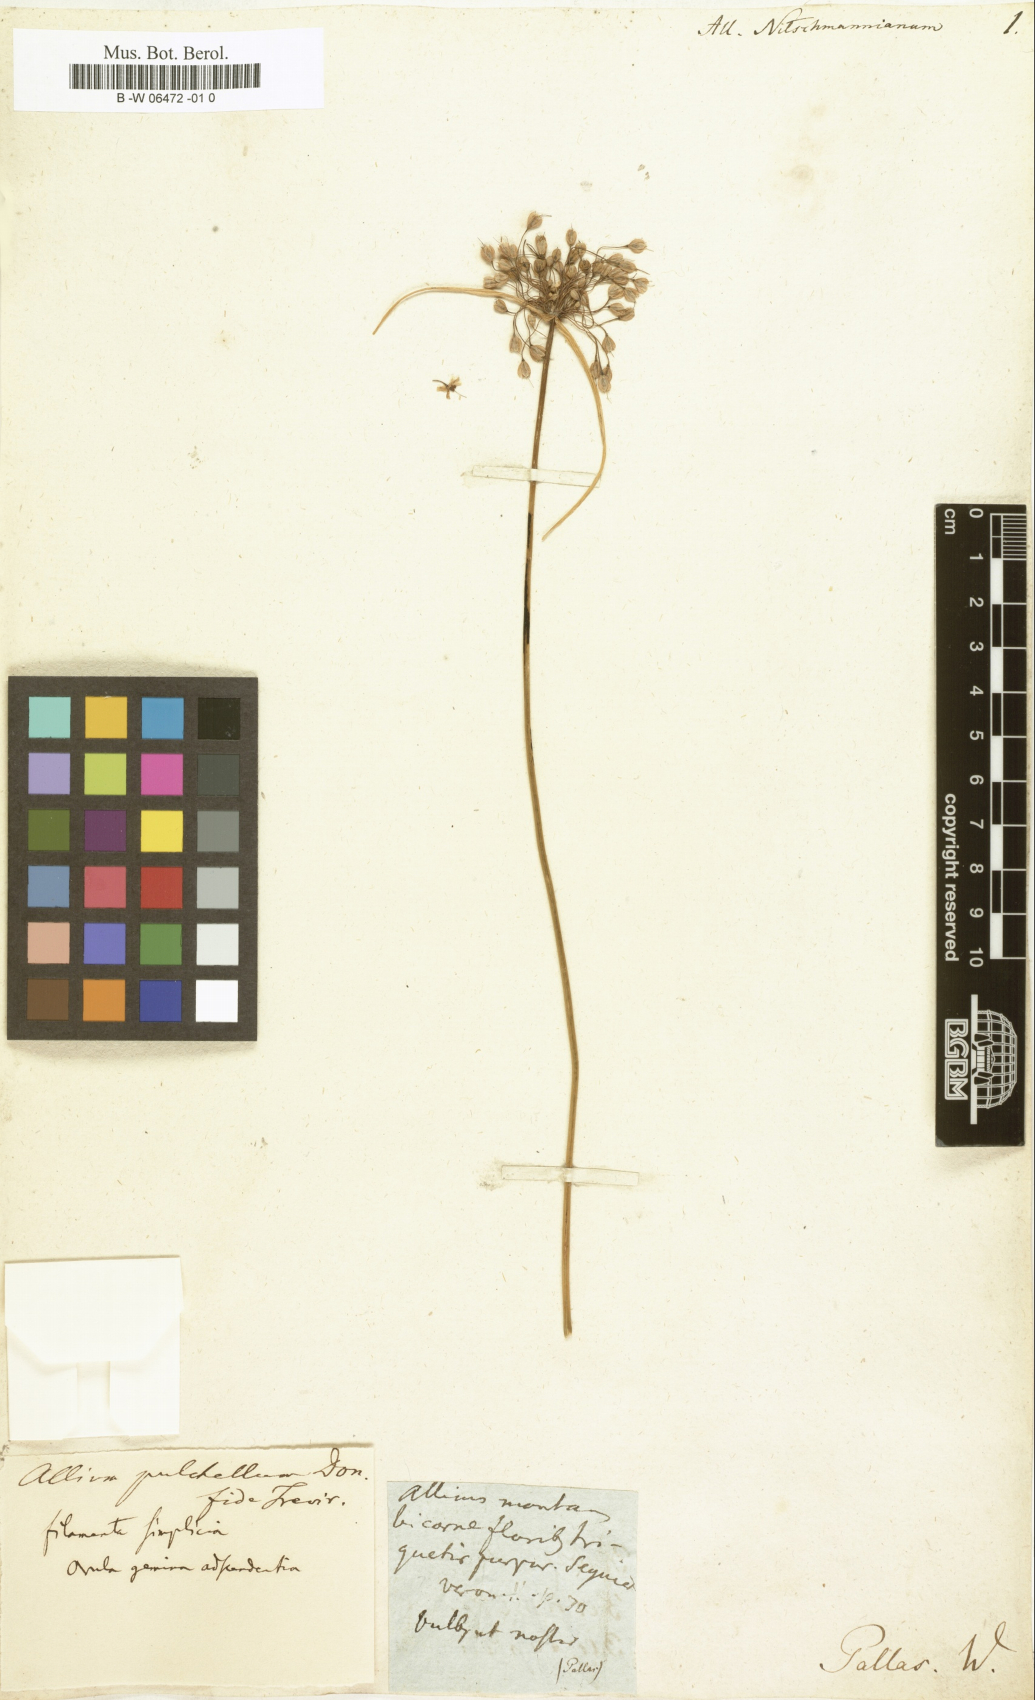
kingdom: Plantae
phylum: Tracheophyta
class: Liliopsida
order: Asparagales
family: Amaryllidaceae
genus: Allium
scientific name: Allium flavum
